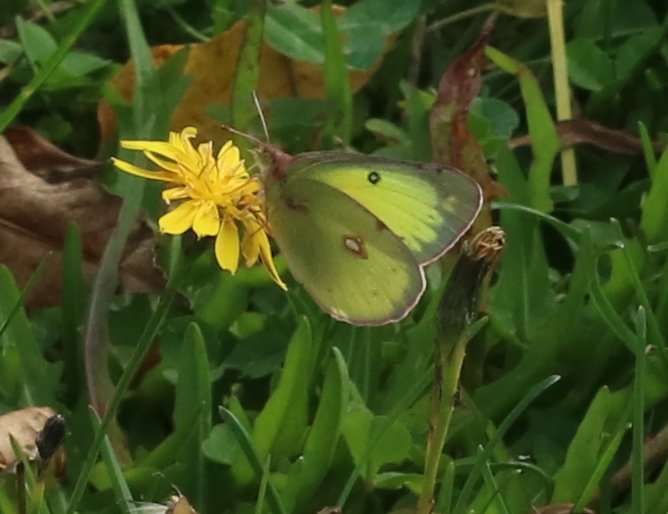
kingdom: Animalia
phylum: Arthropoda
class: Insecta
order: Lepidoptera
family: Pieridae
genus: Colias
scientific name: Colias philodice
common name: Clouded Sulphur
